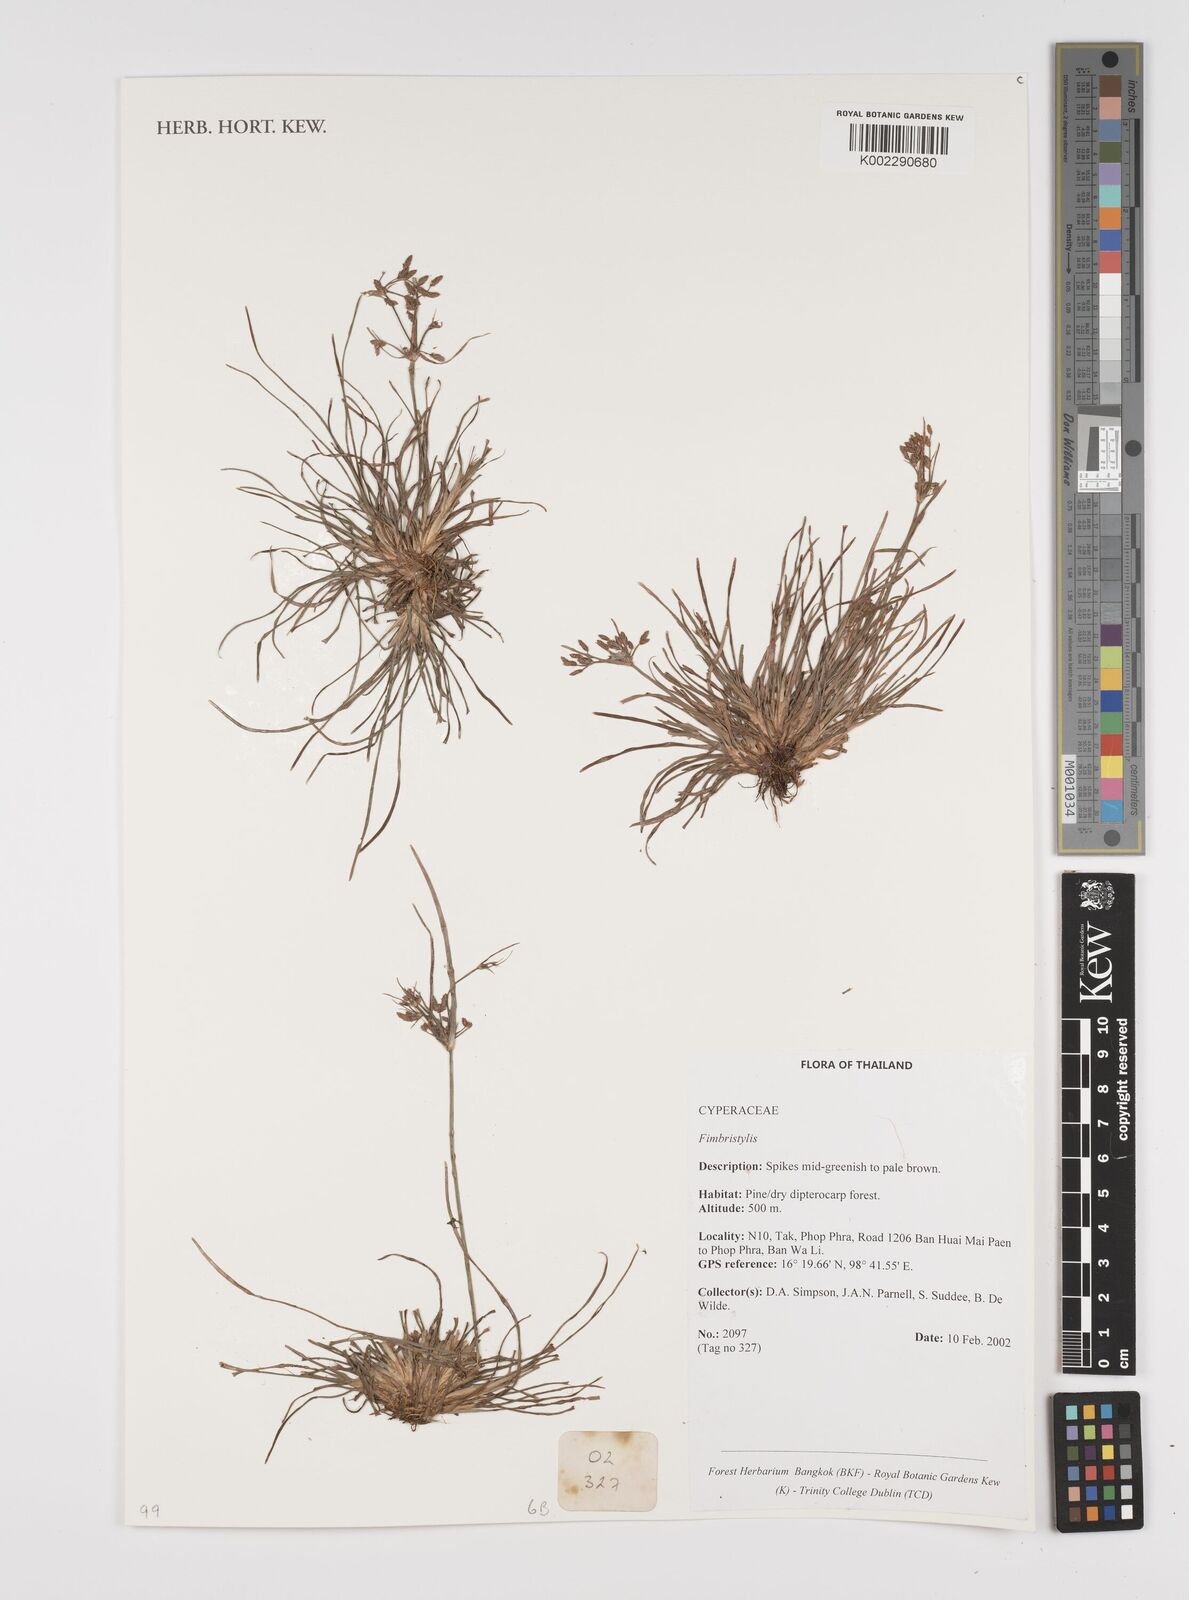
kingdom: Plantae
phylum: Tracheophyta
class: Liliopsida
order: Poales
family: Cyperaceae
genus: Fimbristylis
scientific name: Fimbristylis
